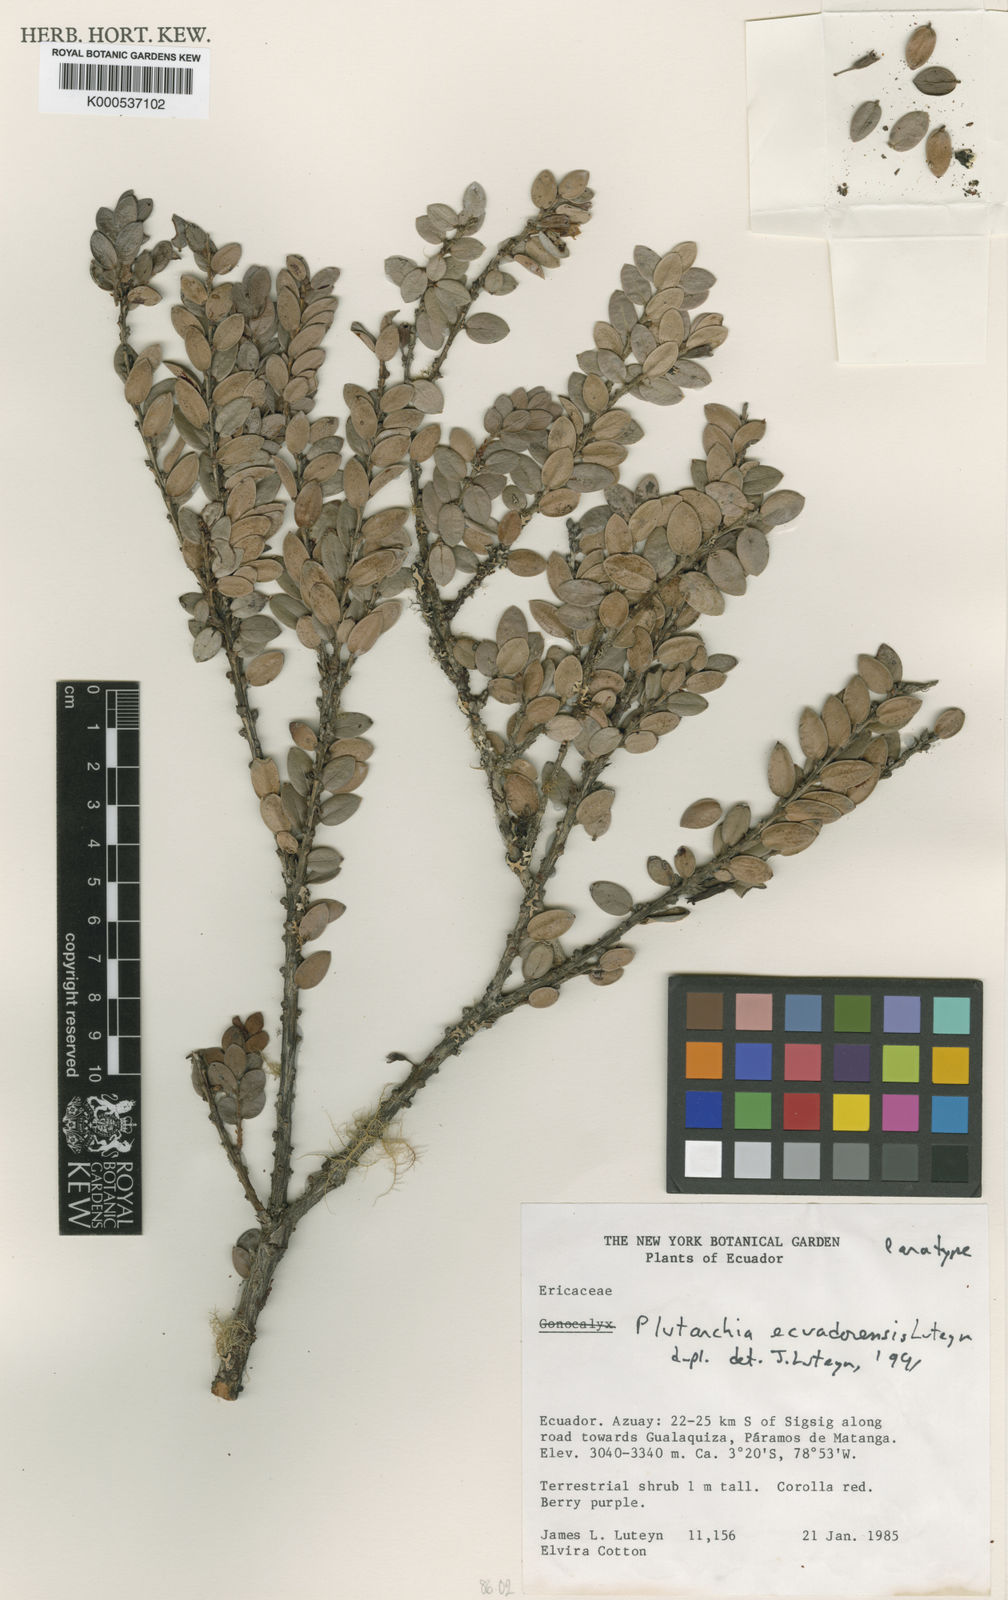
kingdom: Plantae
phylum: Tracheophyta
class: Magnoliopsida
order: Ericales
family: Ericaceae
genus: Plutarchia
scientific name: Plutarchia ecuadorensis
